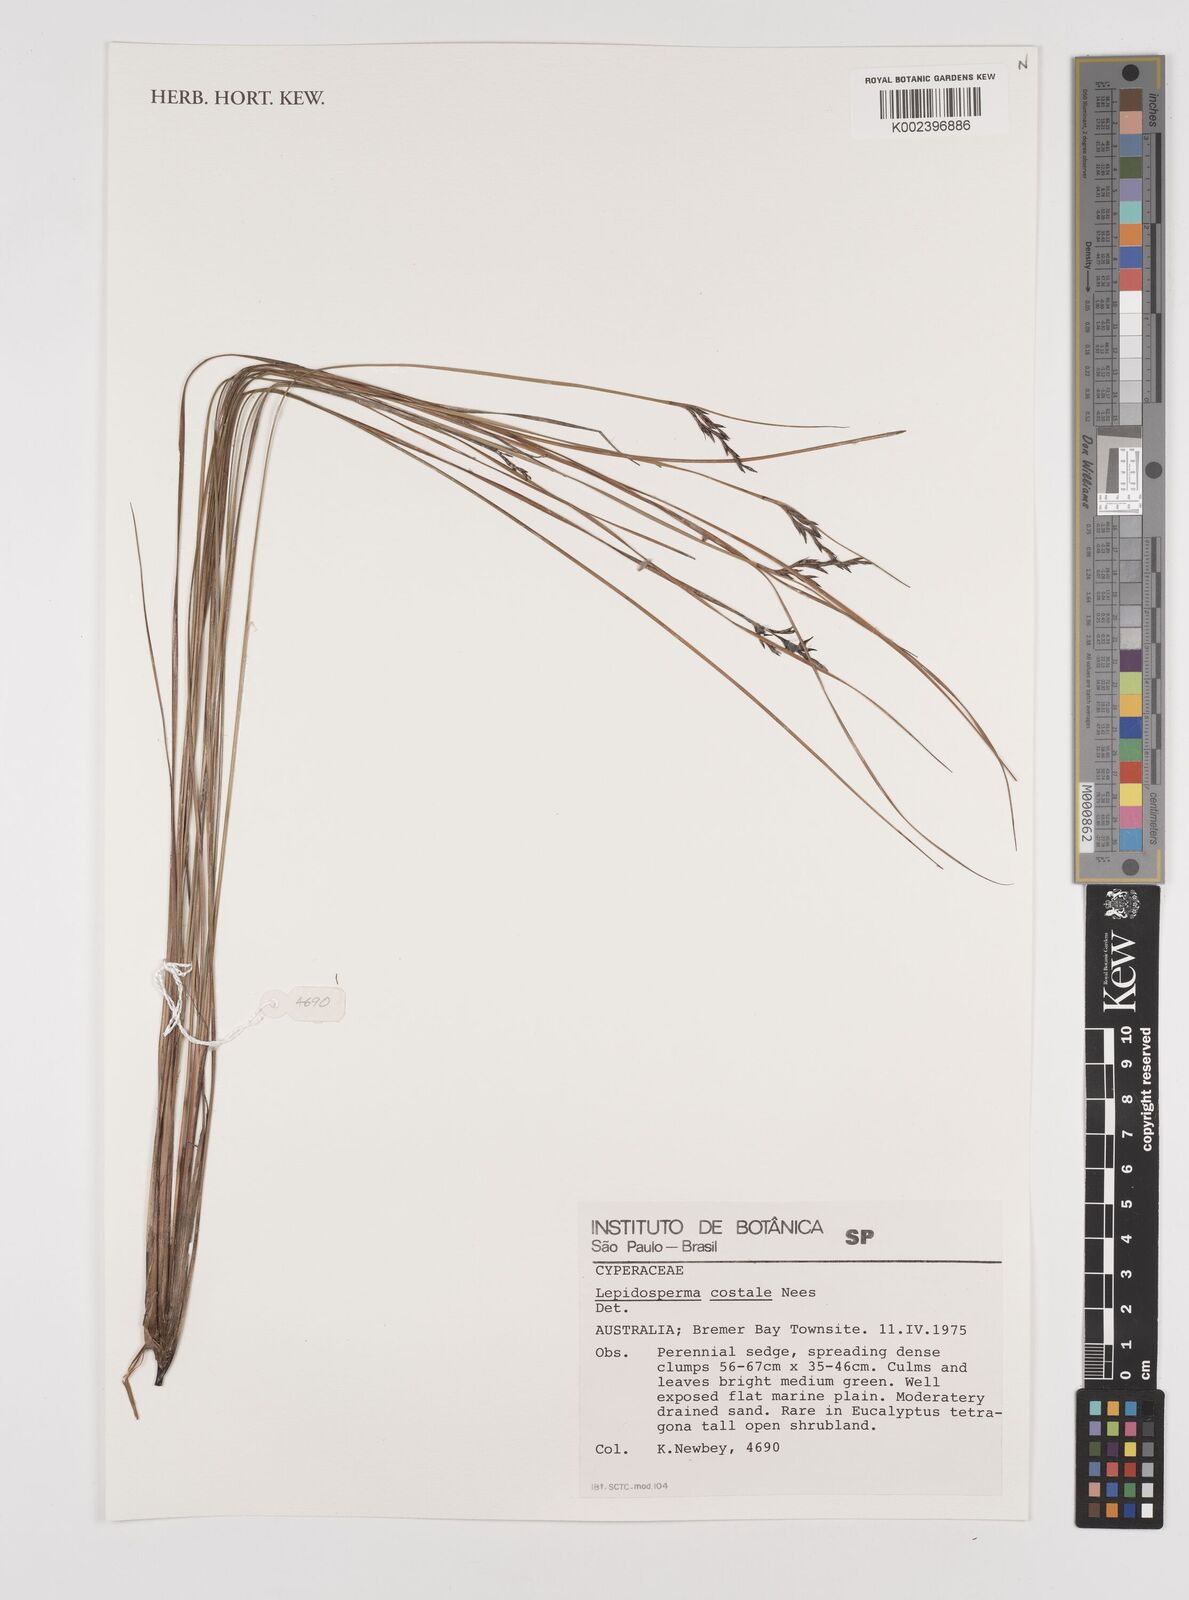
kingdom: Plantae
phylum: Tracheophyta
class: Liliopsida
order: Poales
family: Cyperaceae
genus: Lepidosperma
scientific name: Lepidosperma costale
